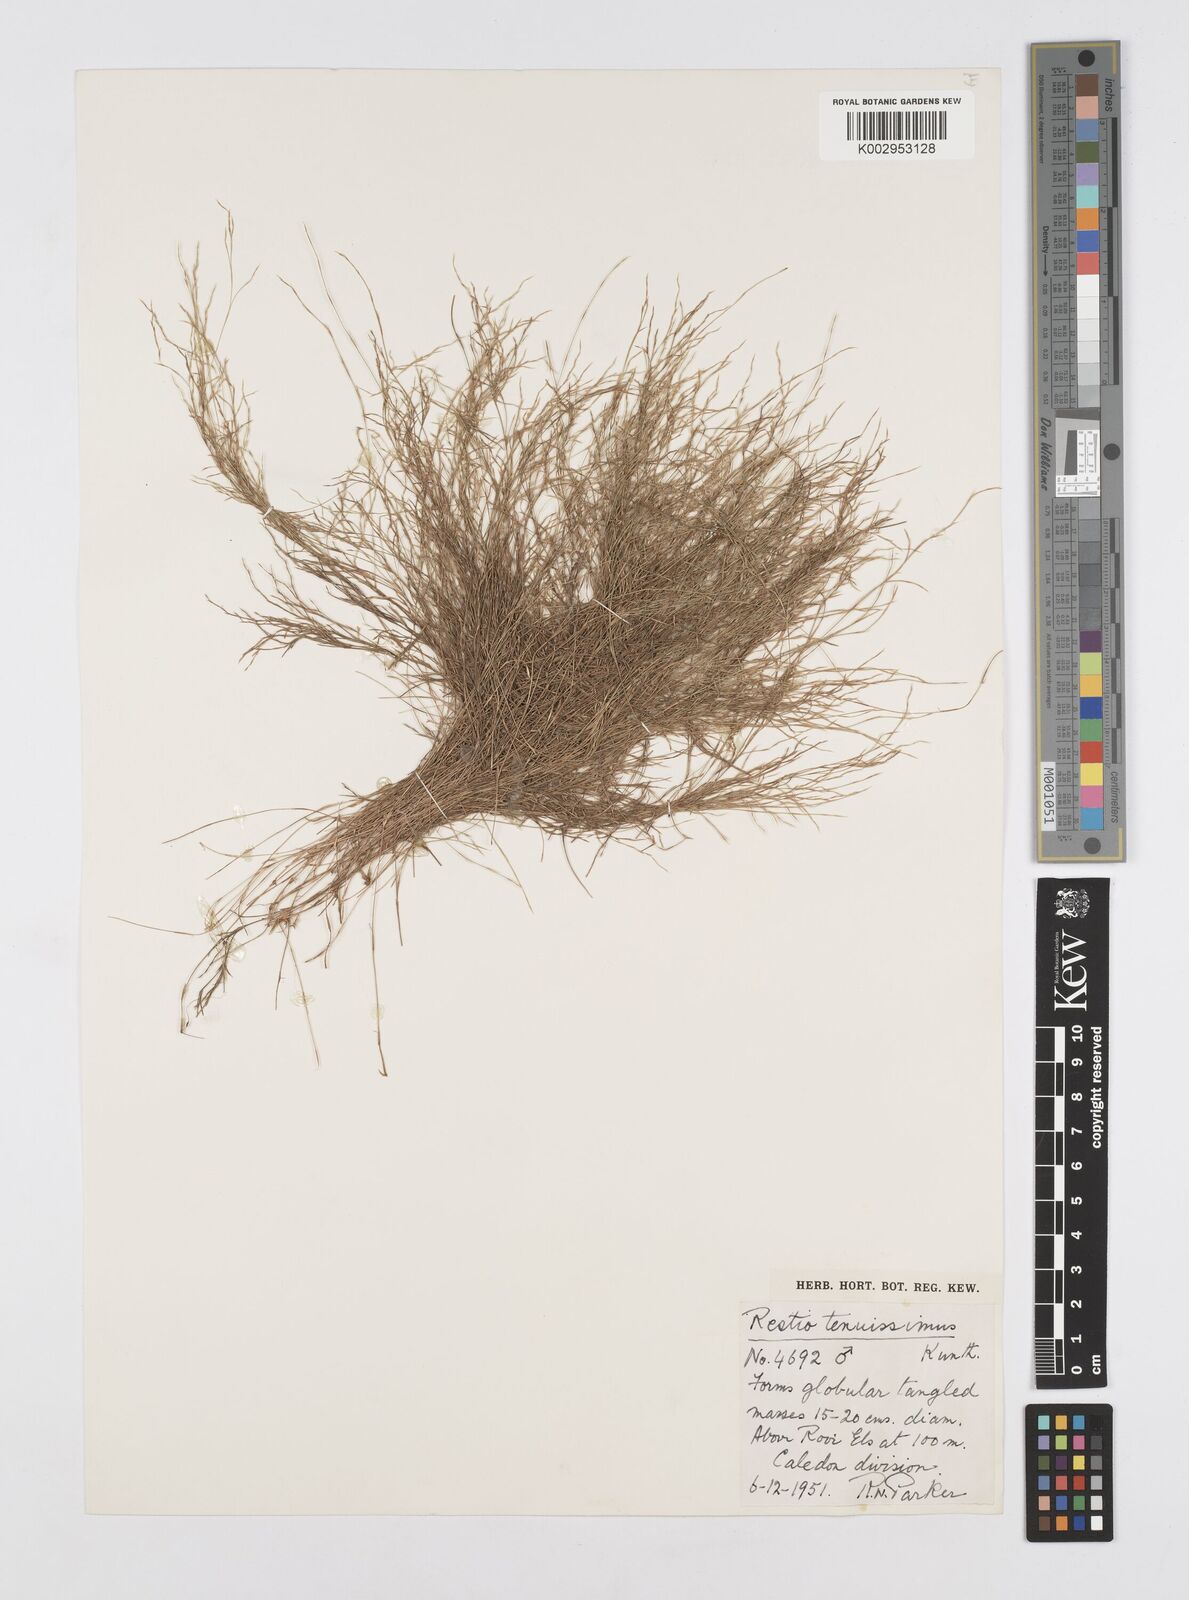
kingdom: Plantae
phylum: Tracheophyta
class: Liliopsida
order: Poales
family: Restionaceae
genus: Restio
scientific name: Restio tenuissimus
